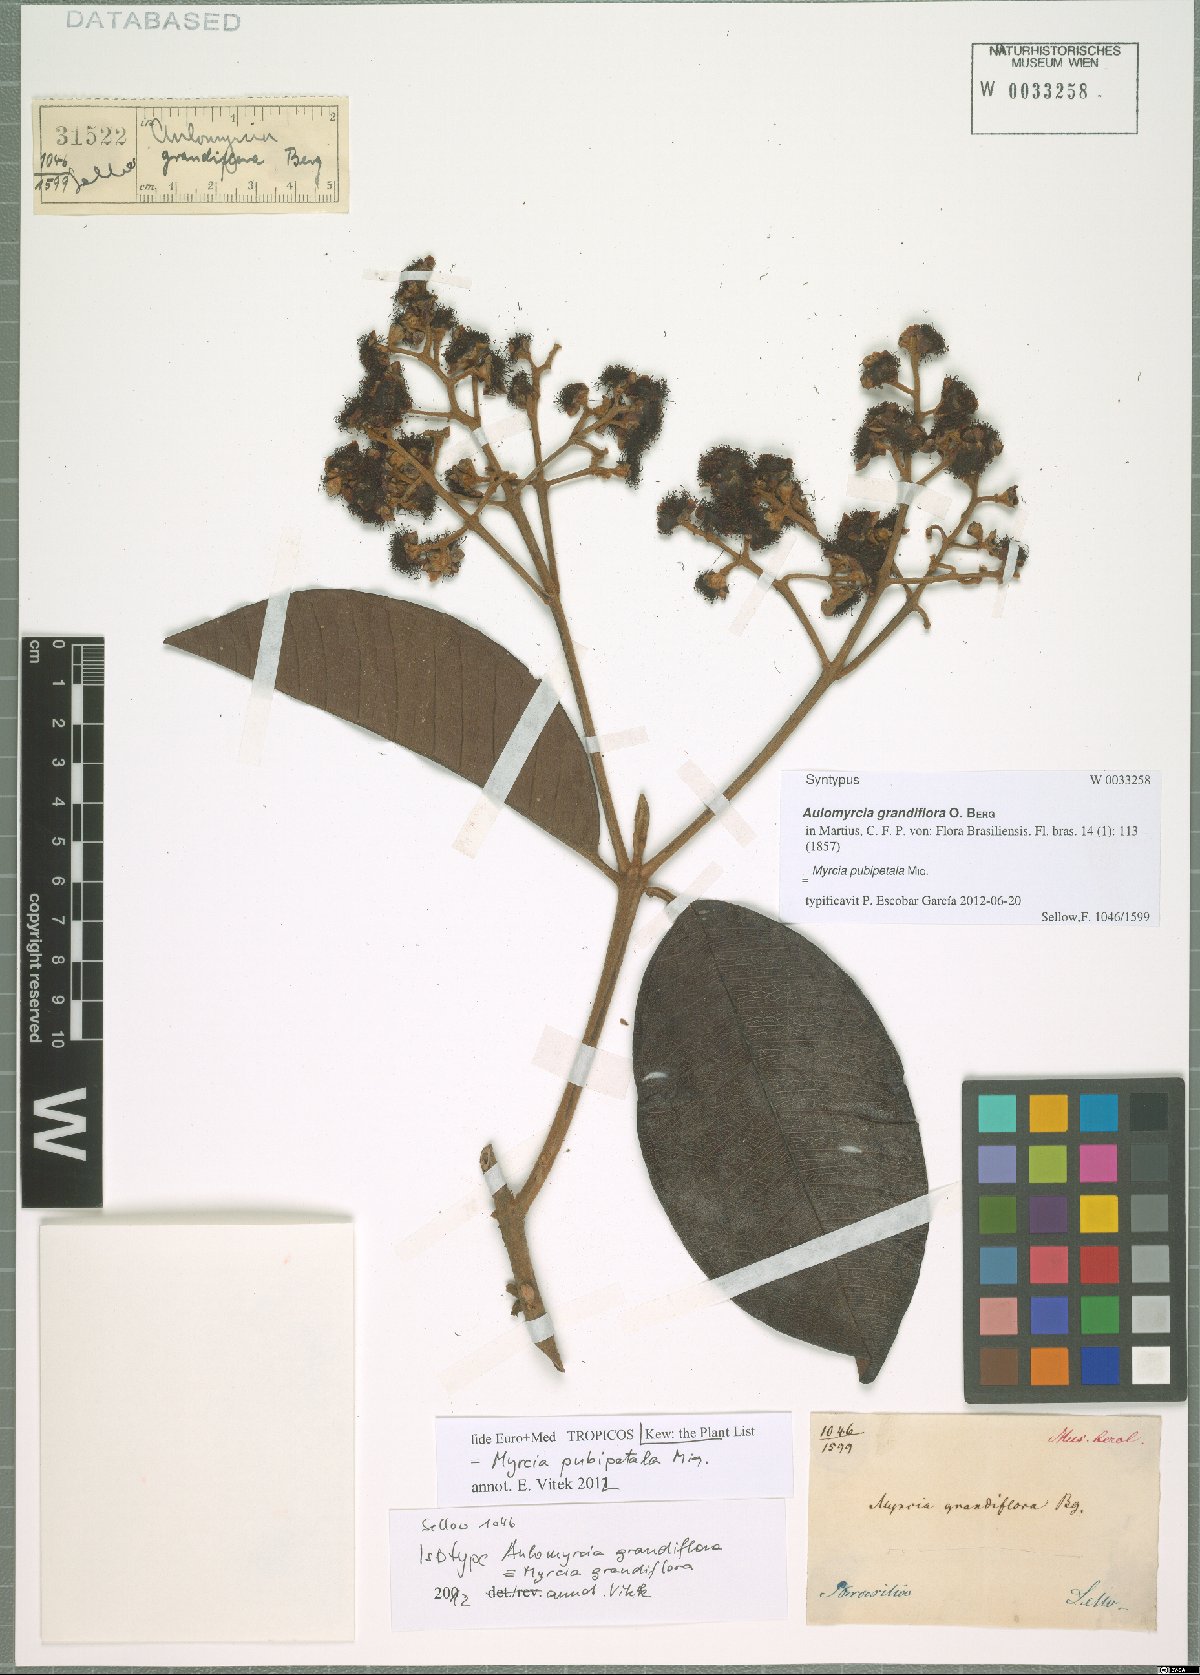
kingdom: Plantae
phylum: Tracheophyta
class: Magnoliopsida
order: Myrtales
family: Myrtaceae
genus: Myrcia
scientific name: Myrcia pubipetala
